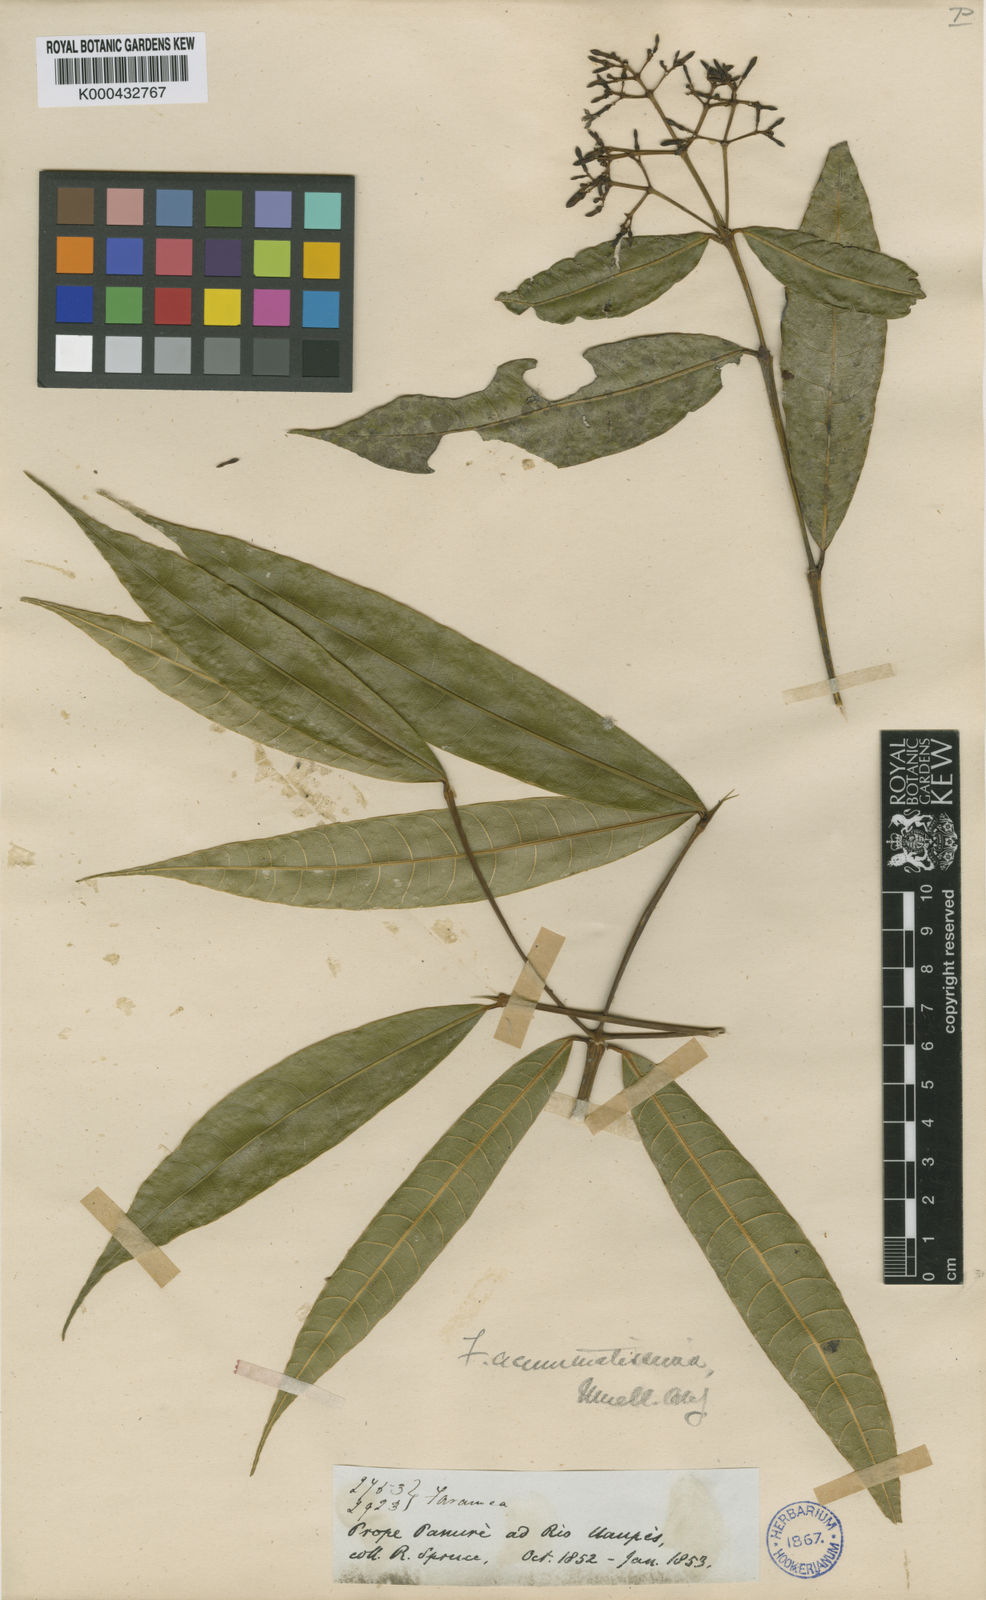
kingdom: Plantae
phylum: Tracheophyta
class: Magnoliopsida
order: Gentianales
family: Rubiaceae
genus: Faramea
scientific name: Faramea
